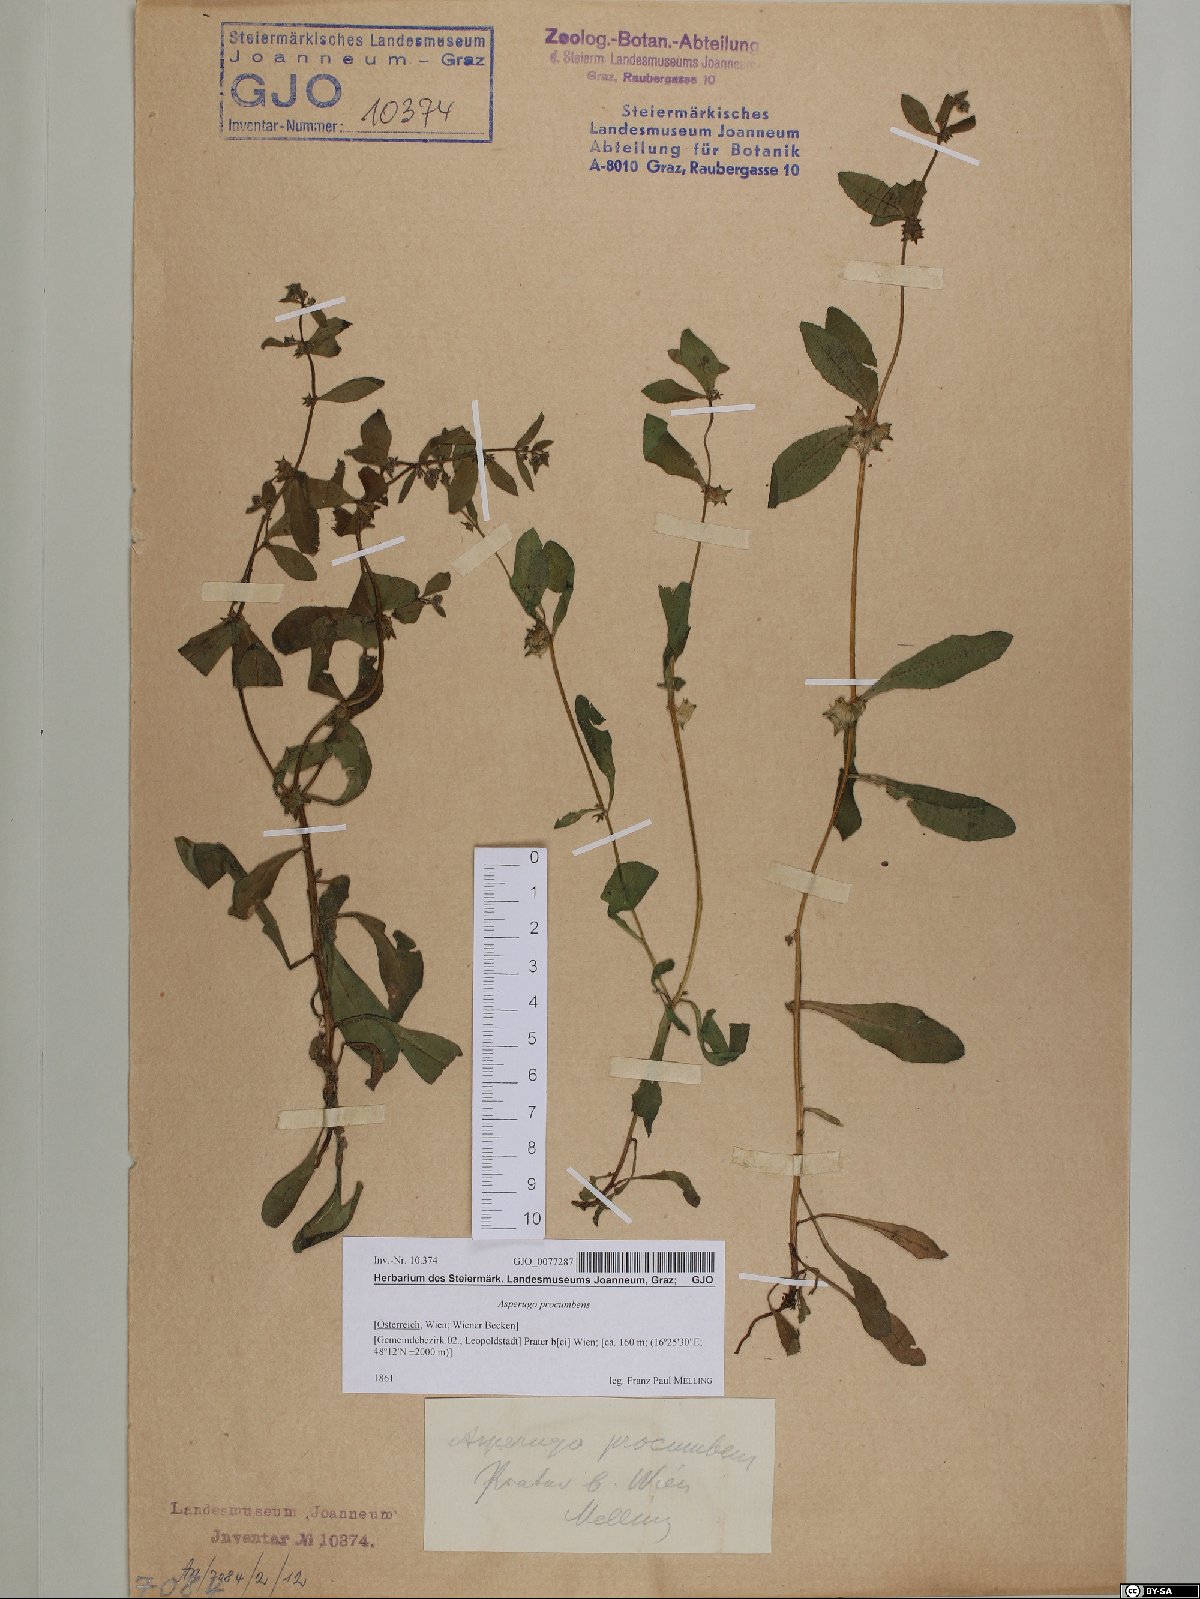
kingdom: Plantae
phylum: Tracheophyta
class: Magnoliopsida
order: Boraginales
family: Boraginaceae
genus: Asperugo
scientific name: Asperugo procumbens
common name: Madwort
